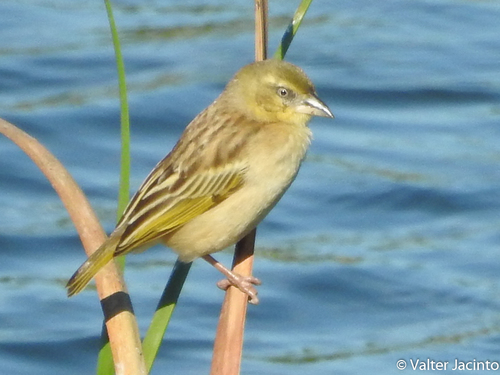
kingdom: Animalia
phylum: Chordata
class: Aves
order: Passeriformes
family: Ploceidae
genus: Ploceus
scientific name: Ploceus melanocephalus
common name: Black-headed weaver
